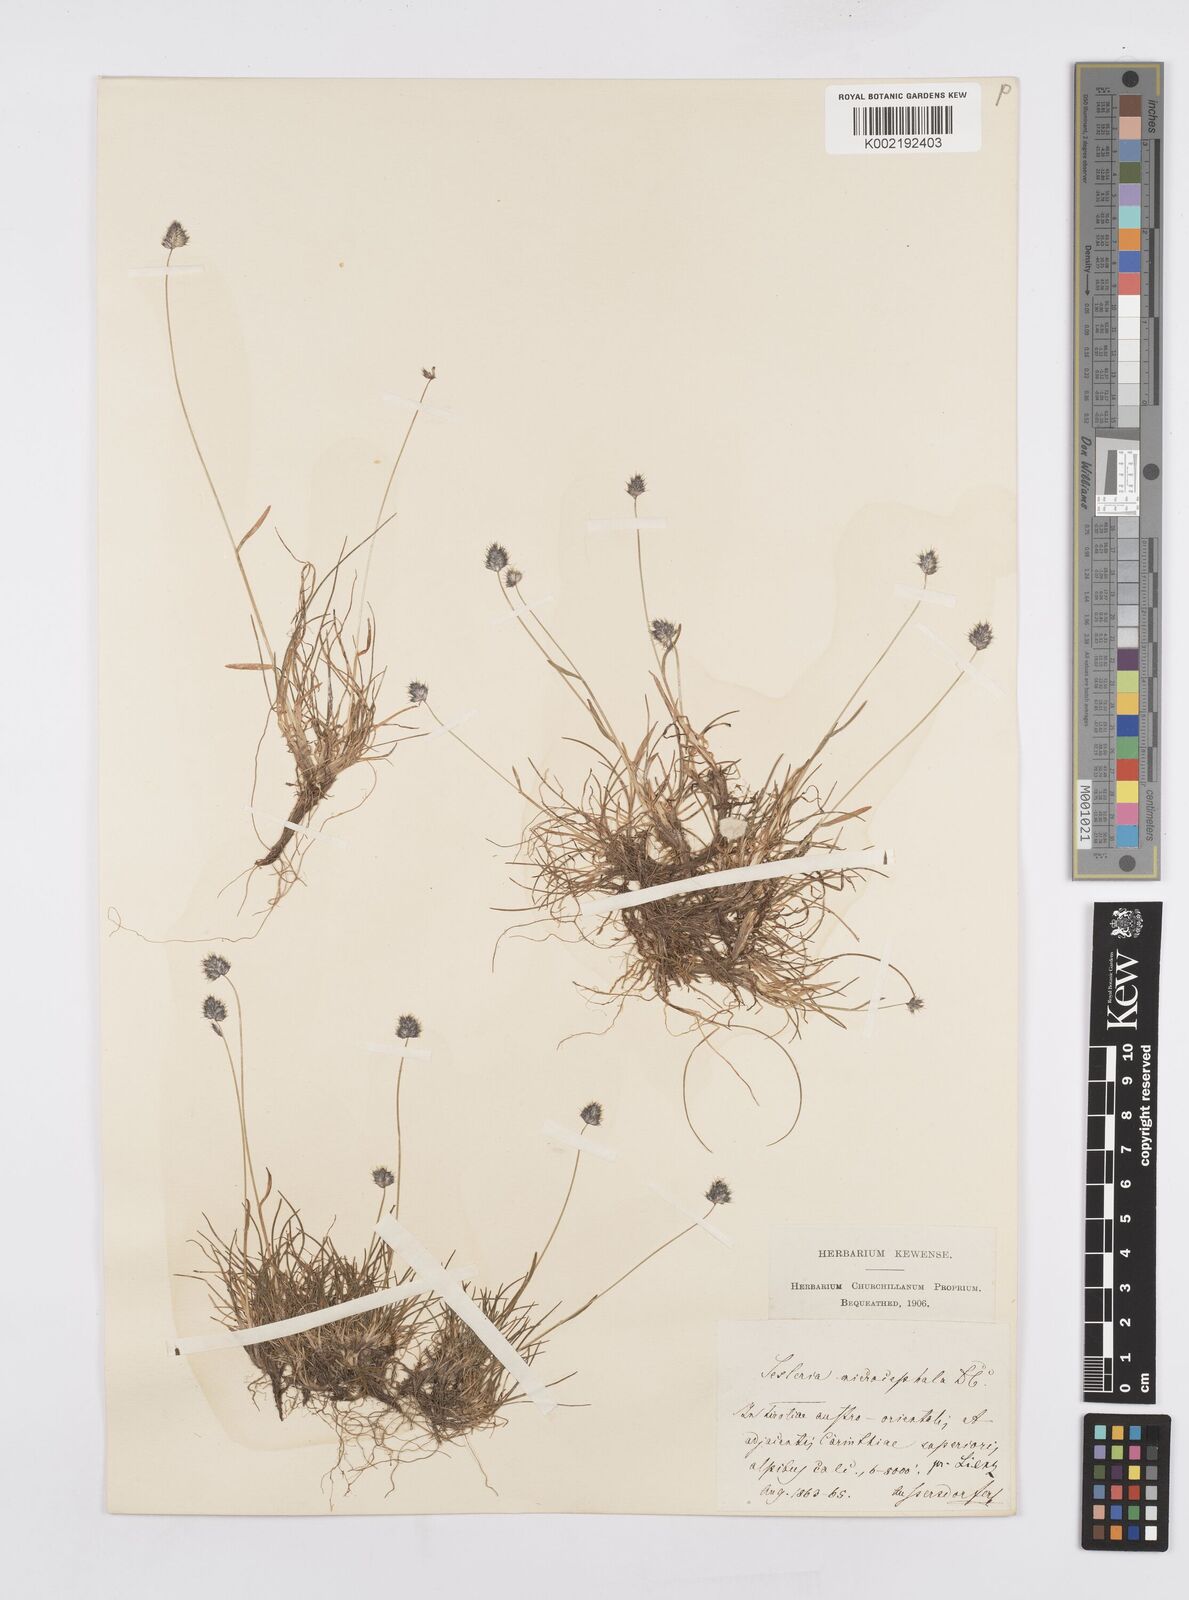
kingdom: Plantae
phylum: Tracheophyta
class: Liliopsida
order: Poales
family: Poaceae
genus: Psilathera
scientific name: Psilathera ovata
